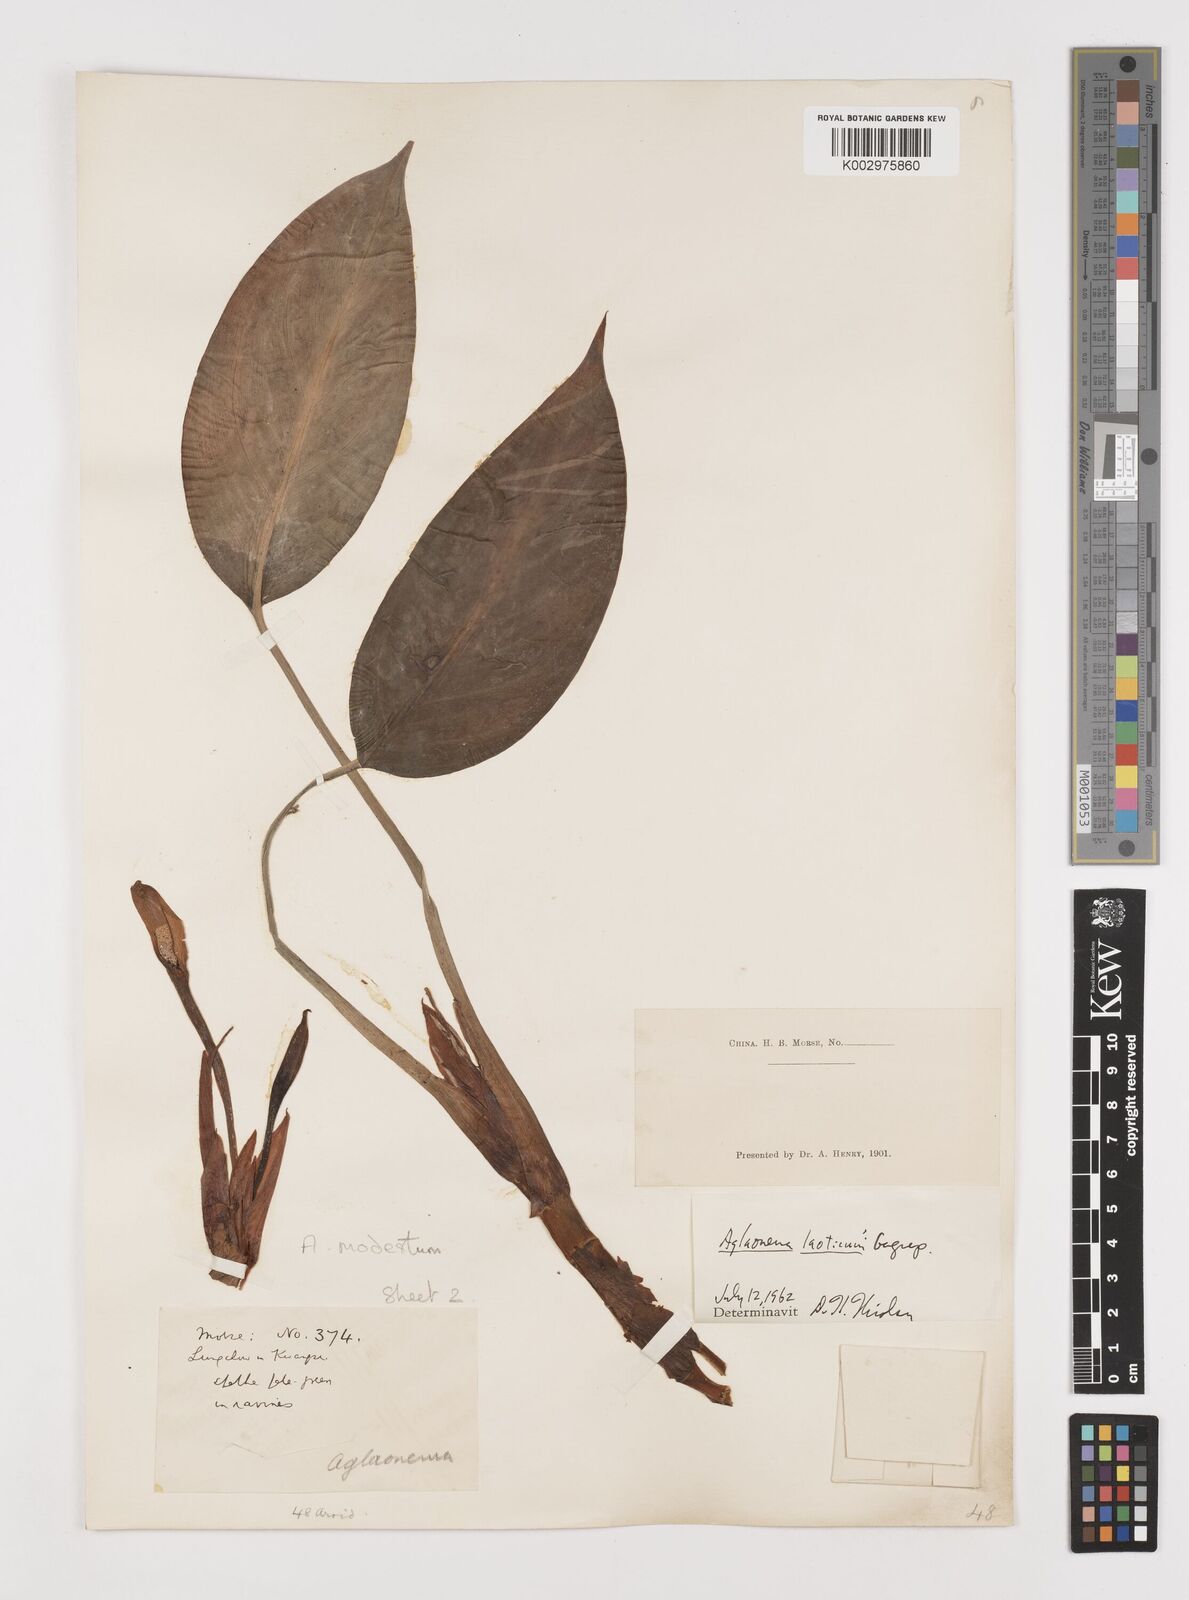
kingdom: Plantae
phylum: Tracheophyta
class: Liliopsida
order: Alismatales
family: Araceae
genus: Aglaonema
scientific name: Aglaonema modestum
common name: Chinese evergreen
